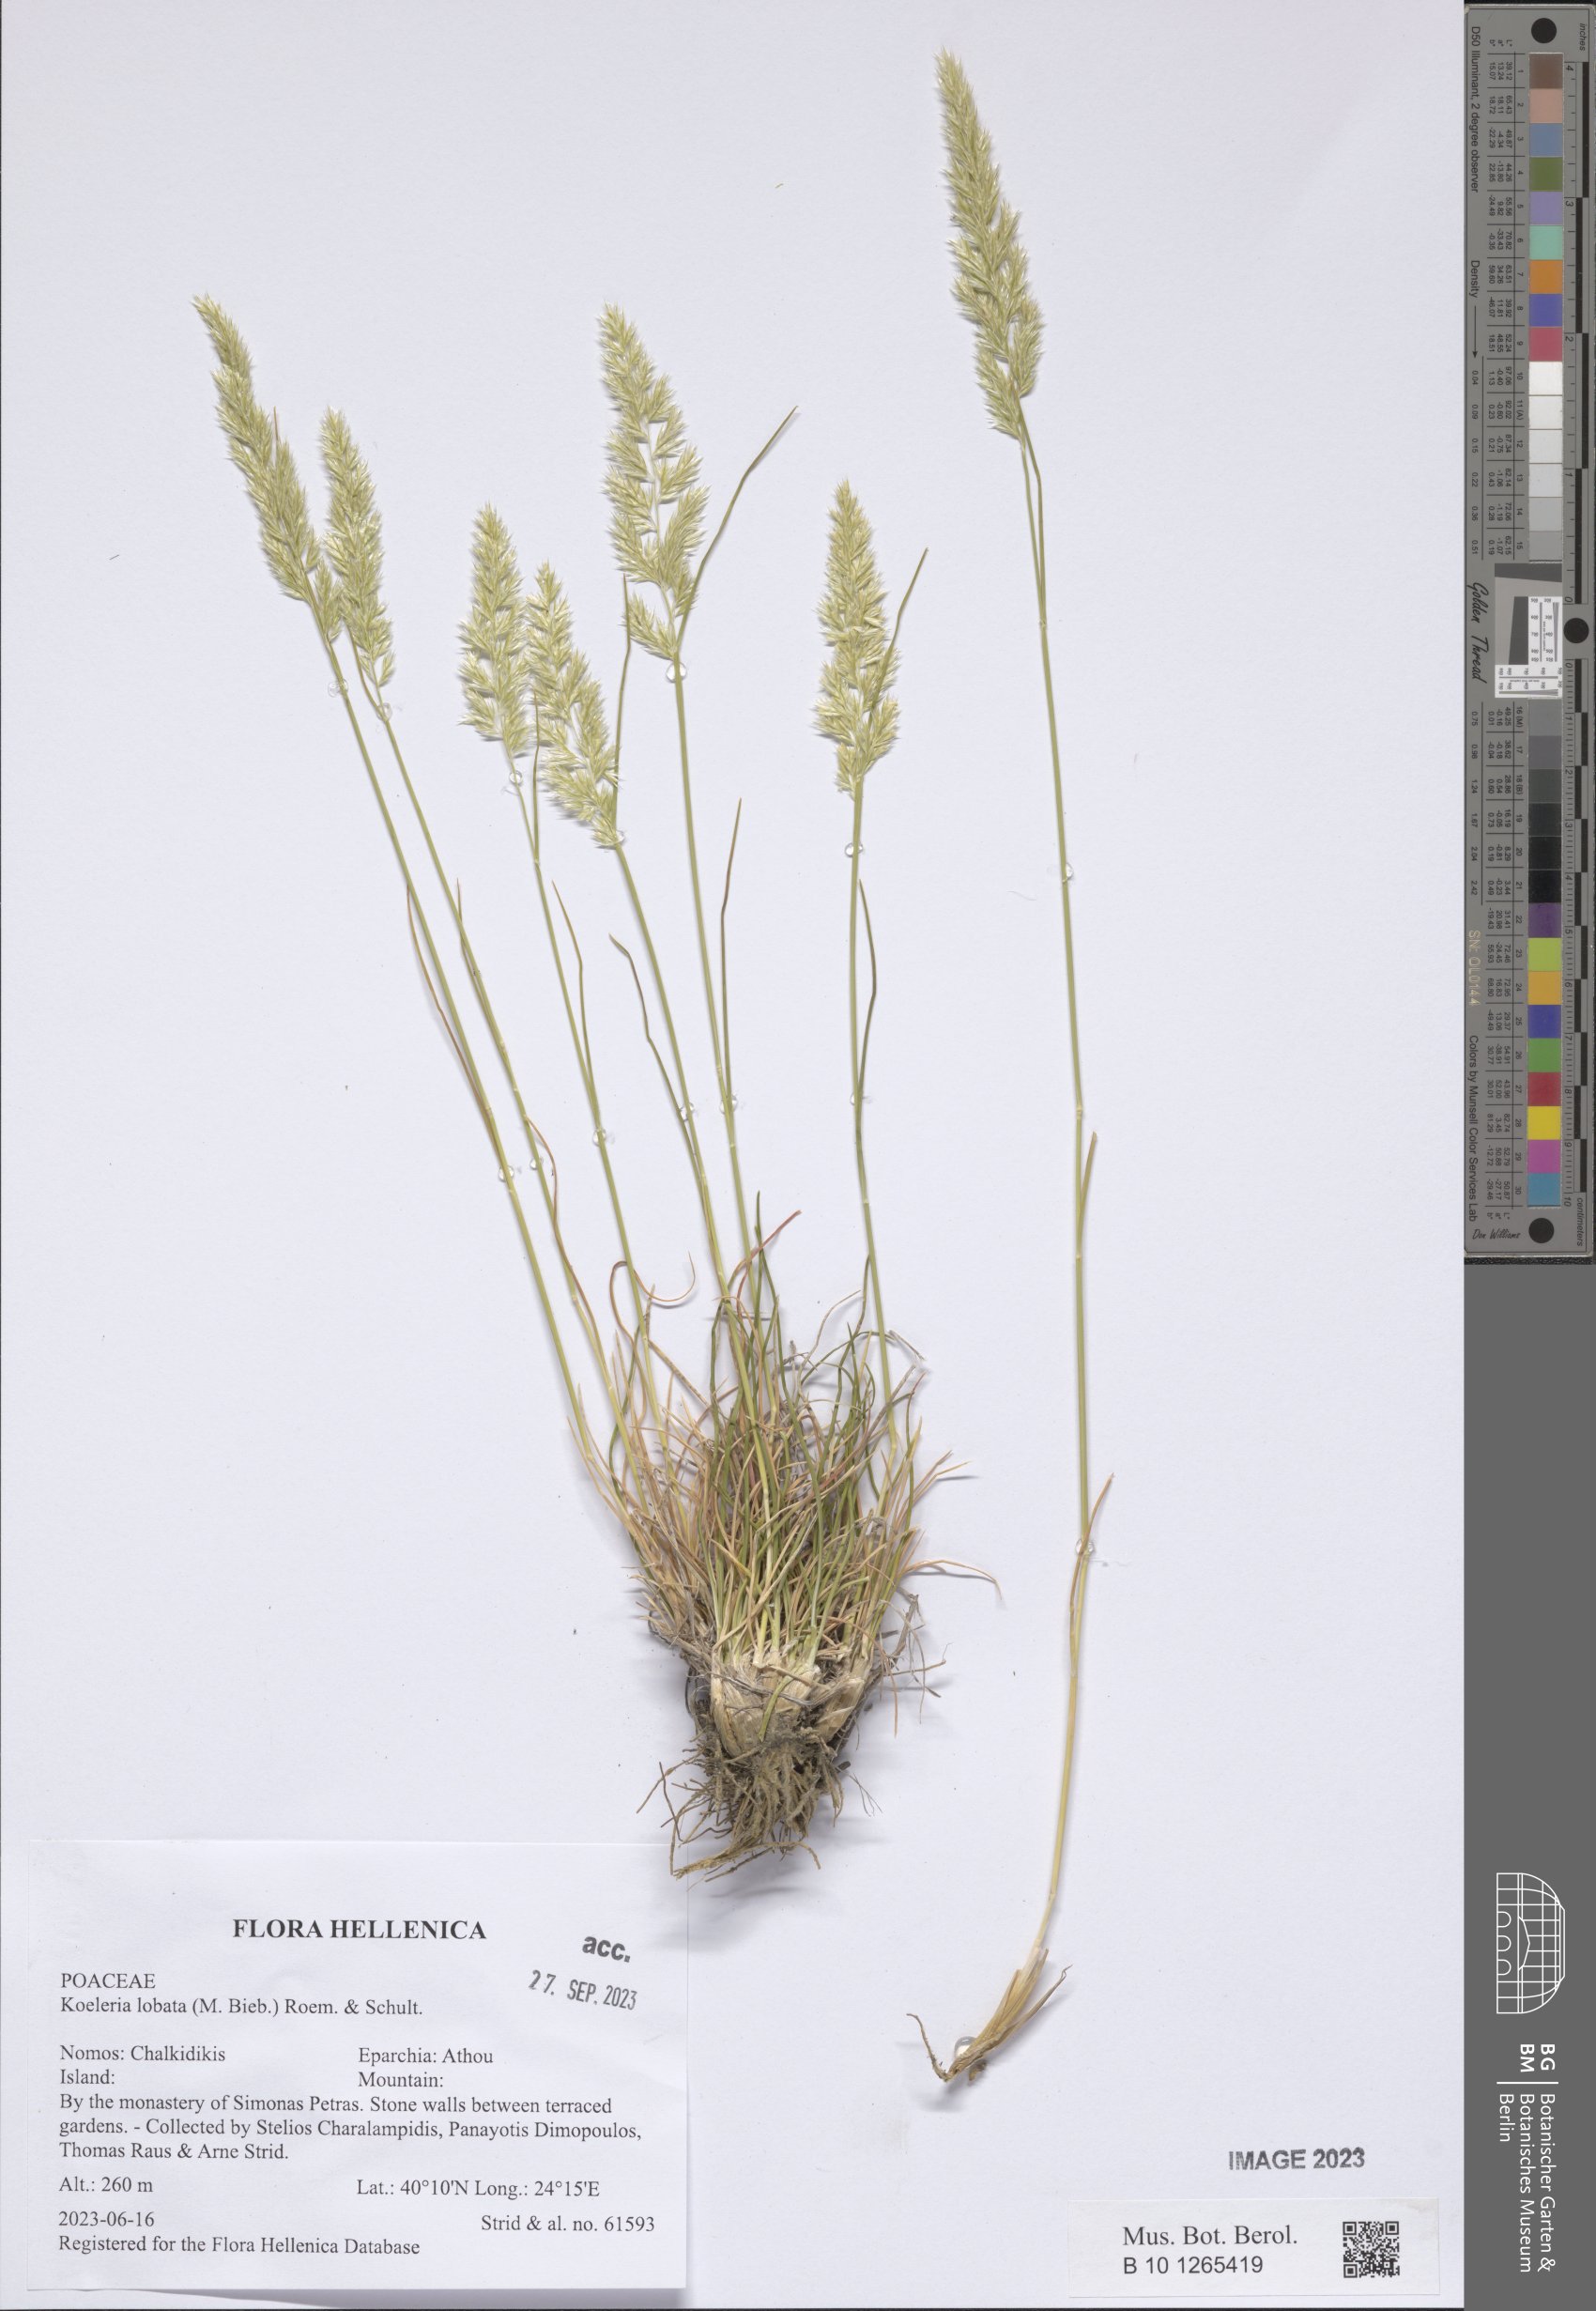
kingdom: Plantae
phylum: Tracheophyta
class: Liliopsida
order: Poales
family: Poaceae
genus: Koeleria
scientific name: Koeleria brevis
